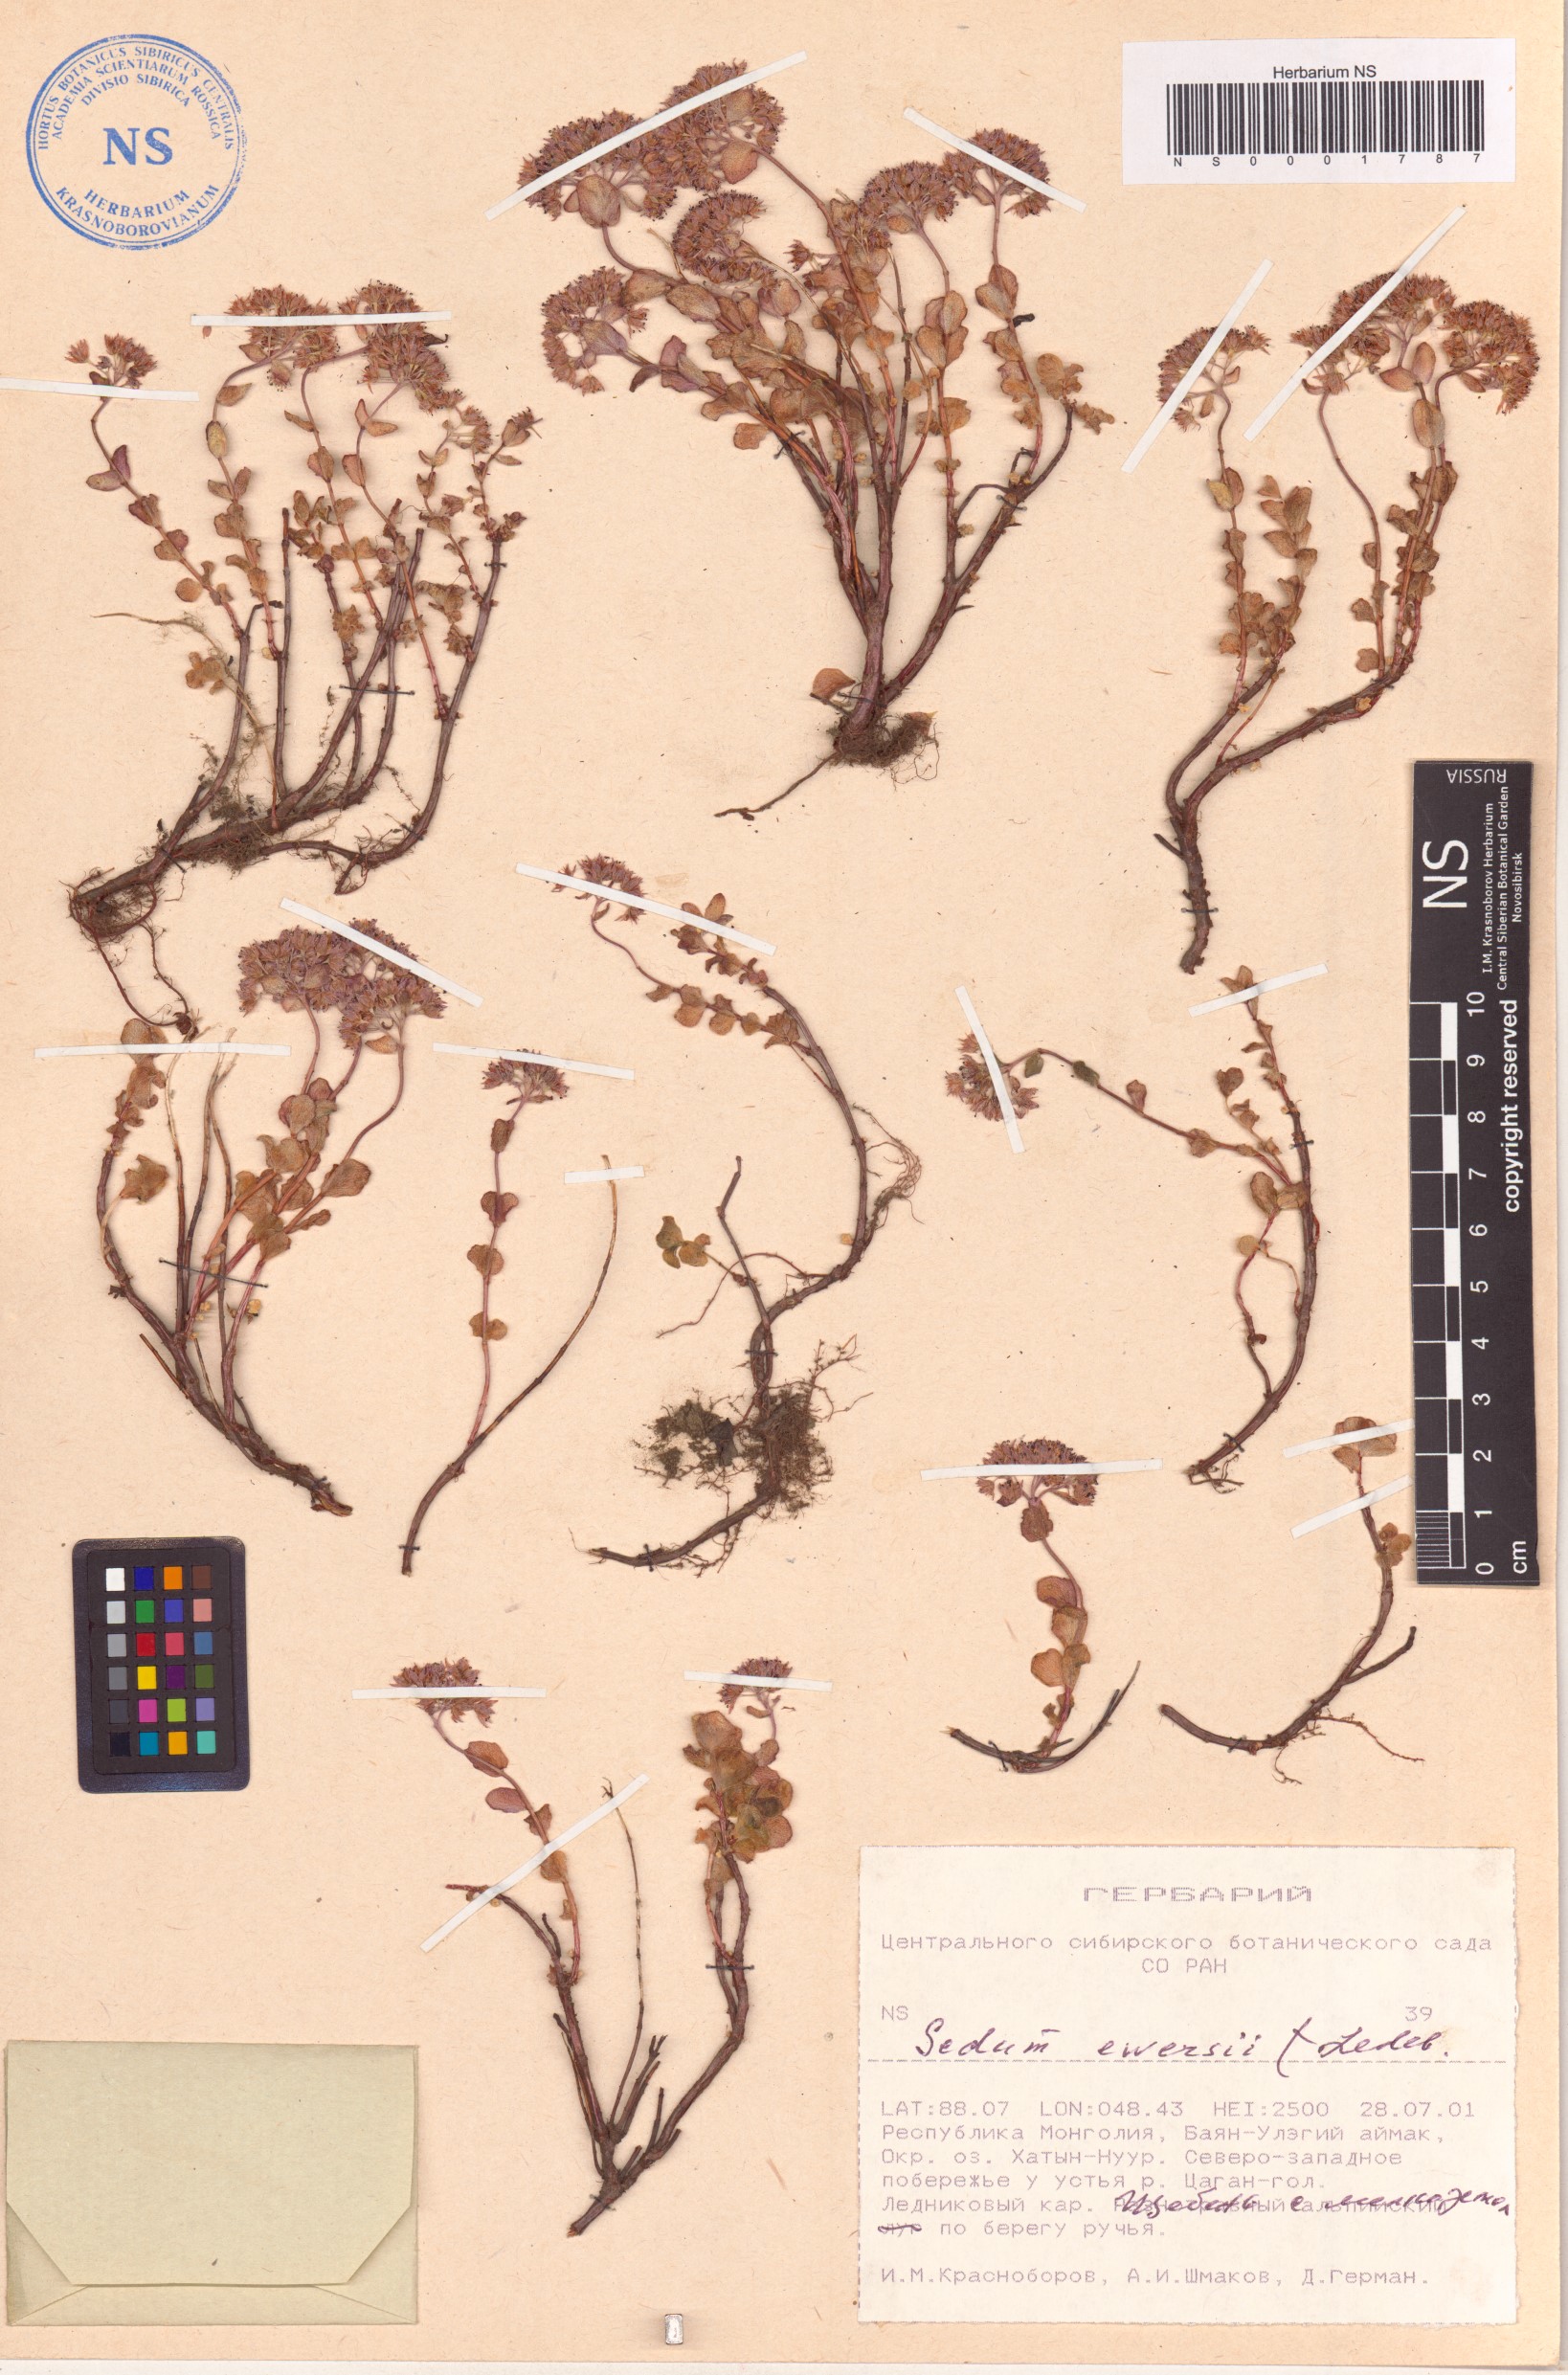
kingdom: Plantae
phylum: Tracheophyta
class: Magnoliopsida
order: Saxifragales
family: Crassulaceae
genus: Hylotelephium
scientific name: Hylotelephium ewersii
